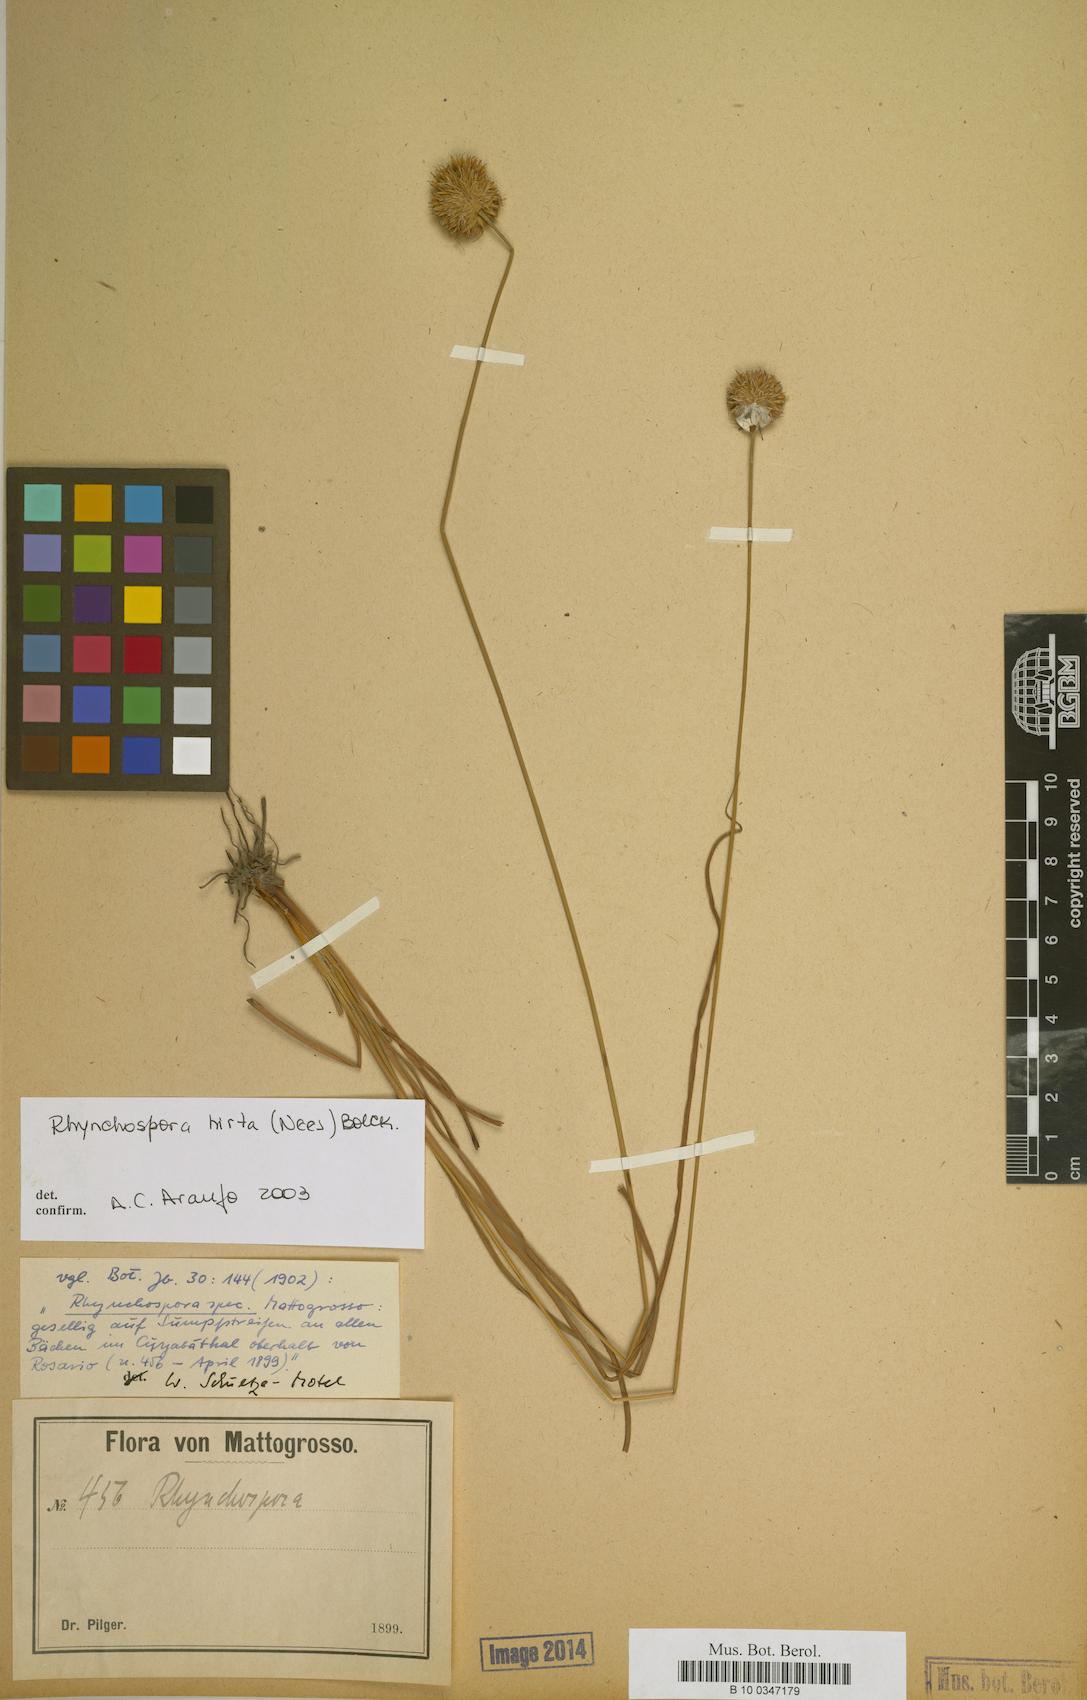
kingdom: Plantae
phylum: Tracheophyta
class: Liliopsida
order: Poales
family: Cyperaceae
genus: Rhynchospora
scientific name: Rhynchospora hirta
